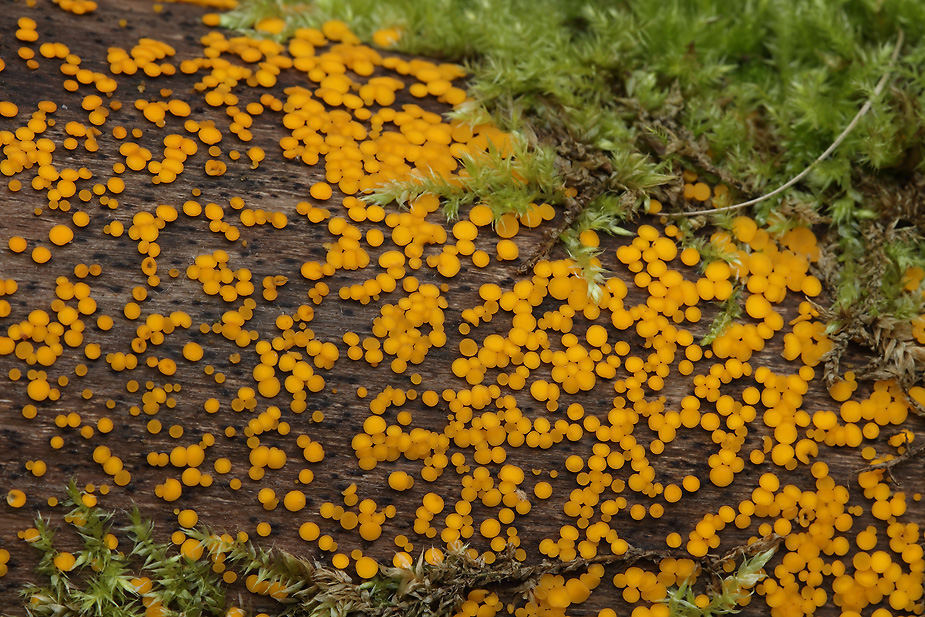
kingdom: Fungi
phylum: Ascomycota
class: Leotiomycetes
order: Helotiales
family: Pezizellaceae
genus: Calycina
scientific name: Calycina citrina
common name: almindelig gulskive
